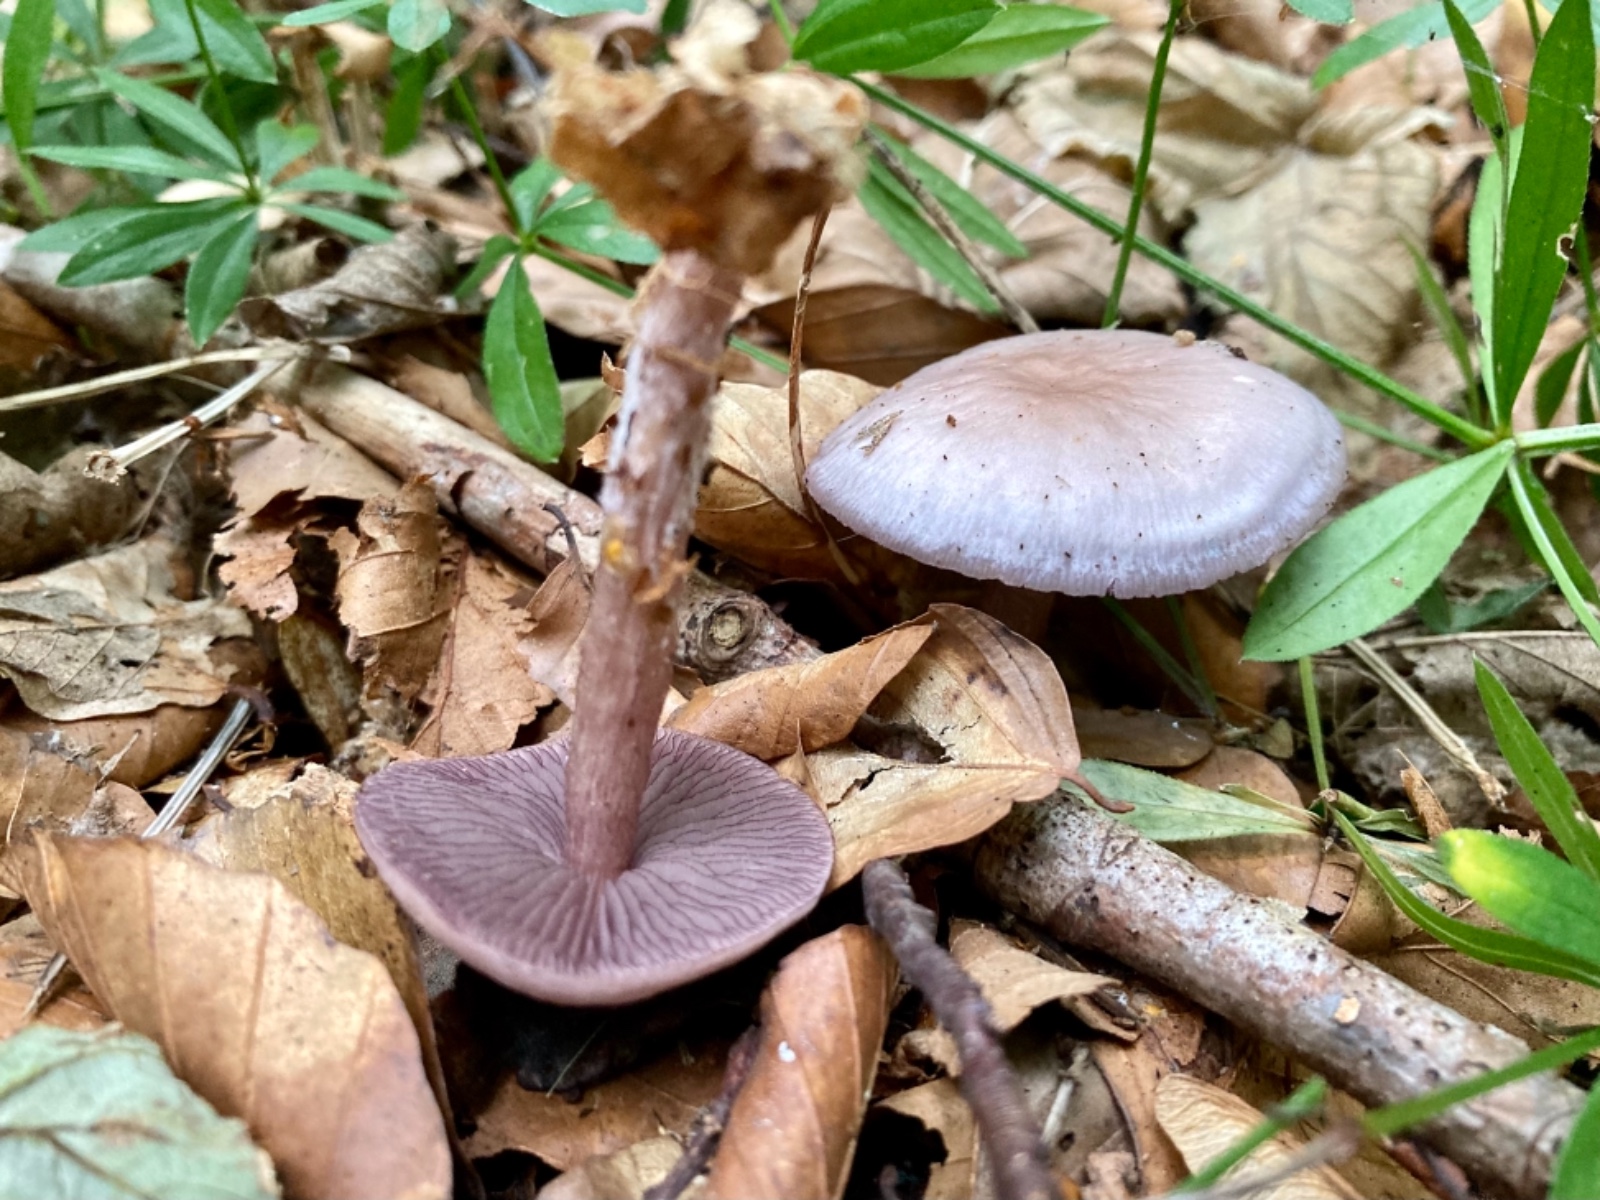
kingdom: Fungi
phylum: Basidiomycota
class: Agaricomycetes
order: Agaricales
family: Mycenaceae
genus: Mycena
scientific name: Mycena pelianthina
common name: mørkbladet huesvamp
